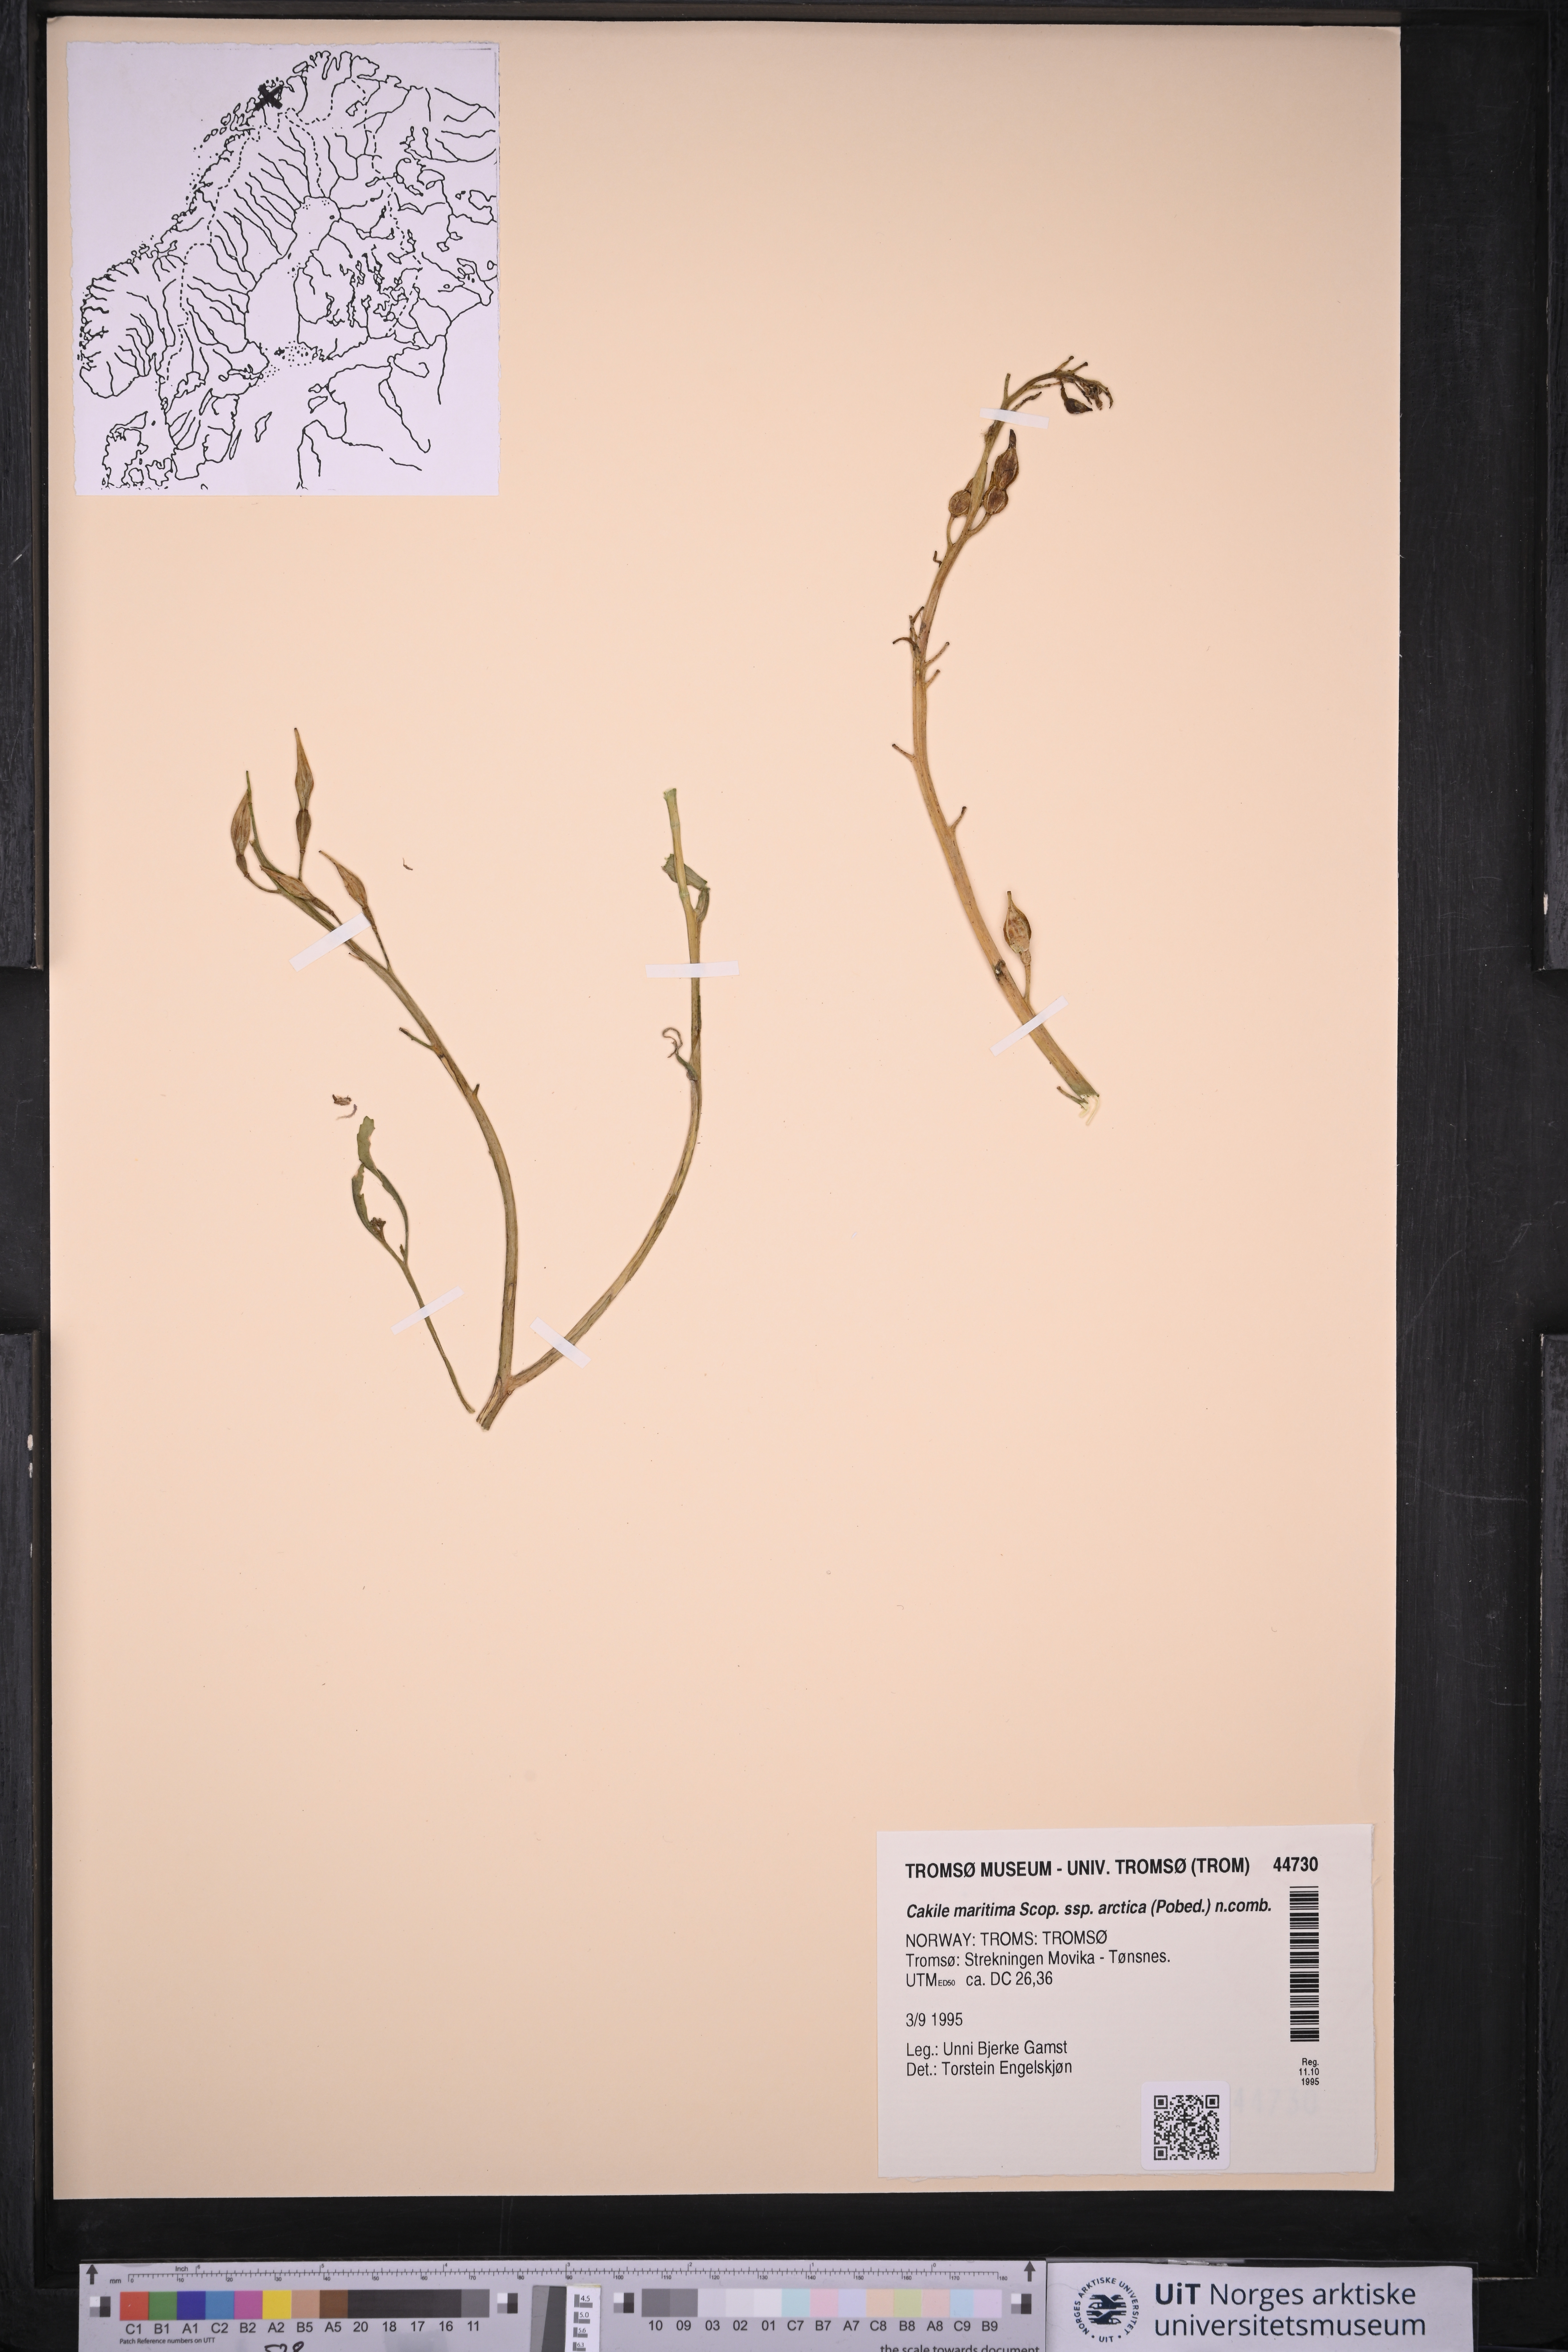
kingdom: Plantae
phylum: Tracheophyta
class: Magnoliopsida
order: Brassicales
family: Brassicaceae
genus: Cakile
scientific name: Cakile arctica
